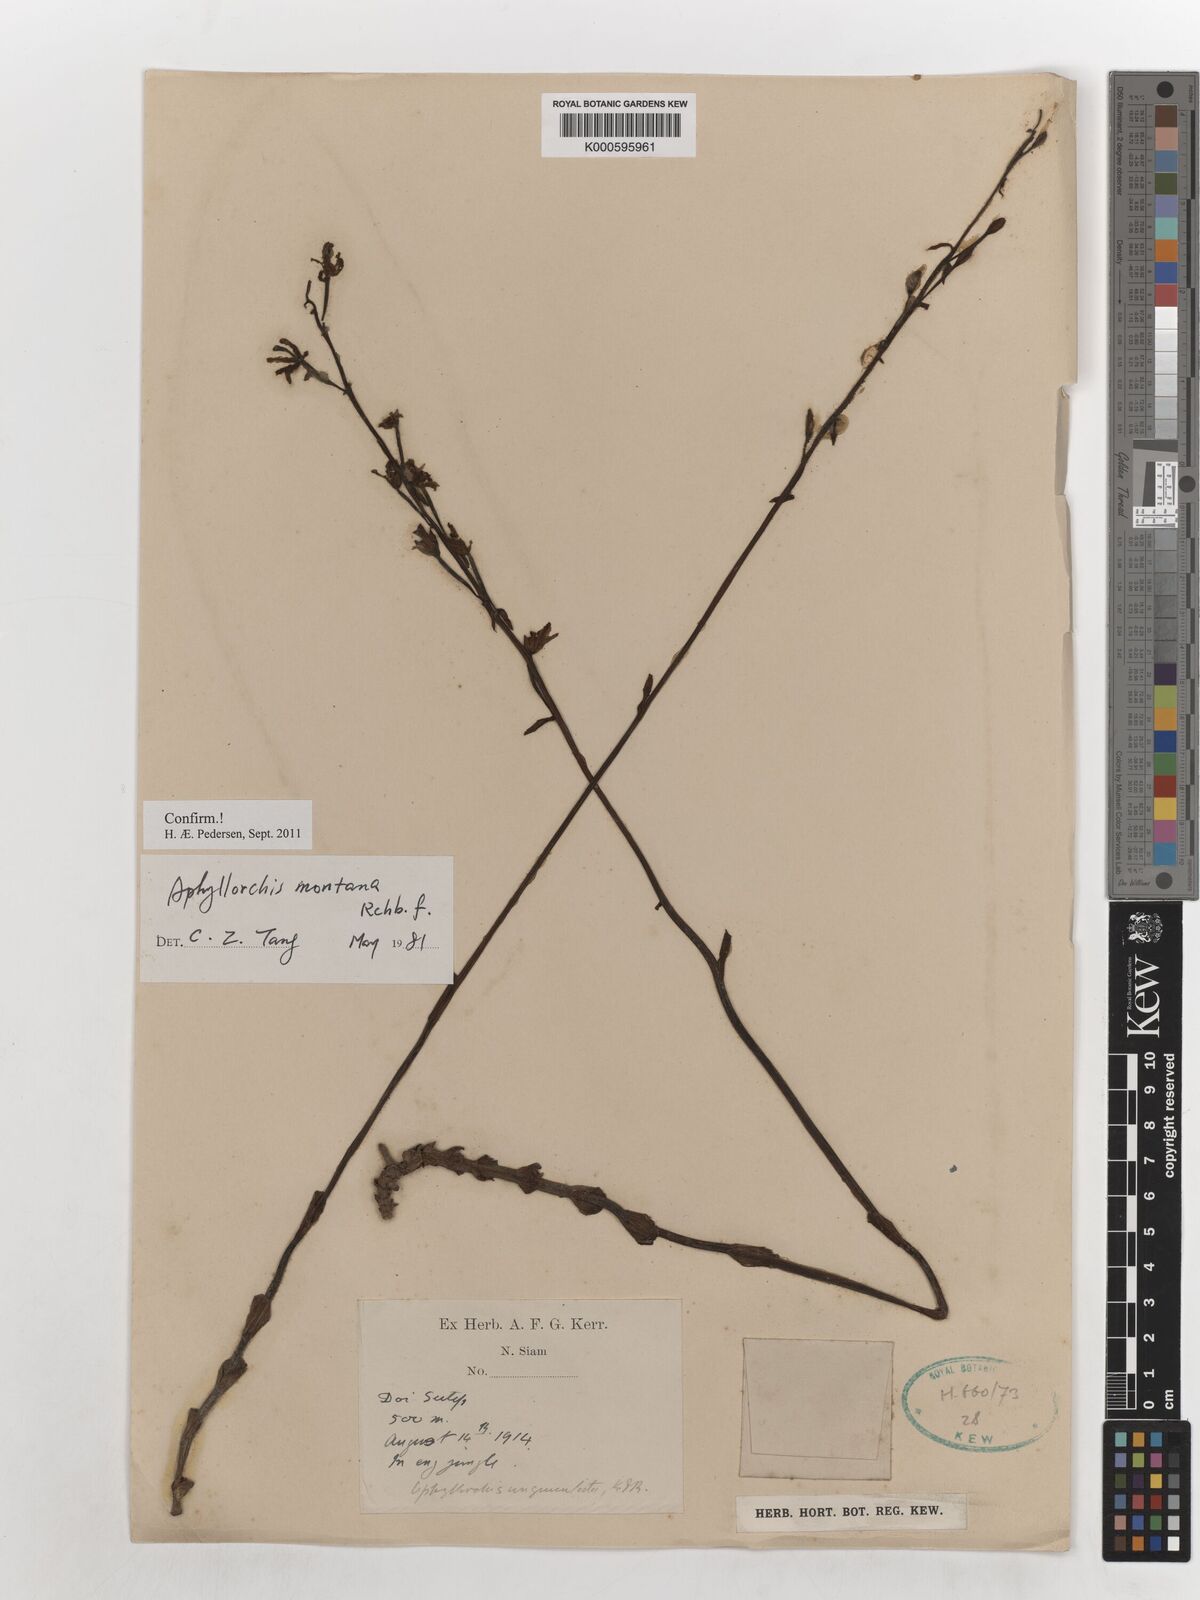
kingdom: Plantae
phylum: Tracheophyta
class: Liliopsida
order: Asparagales
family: Orchidaceae
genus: Aphyllorchis
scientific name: Aphyllorchis montana
